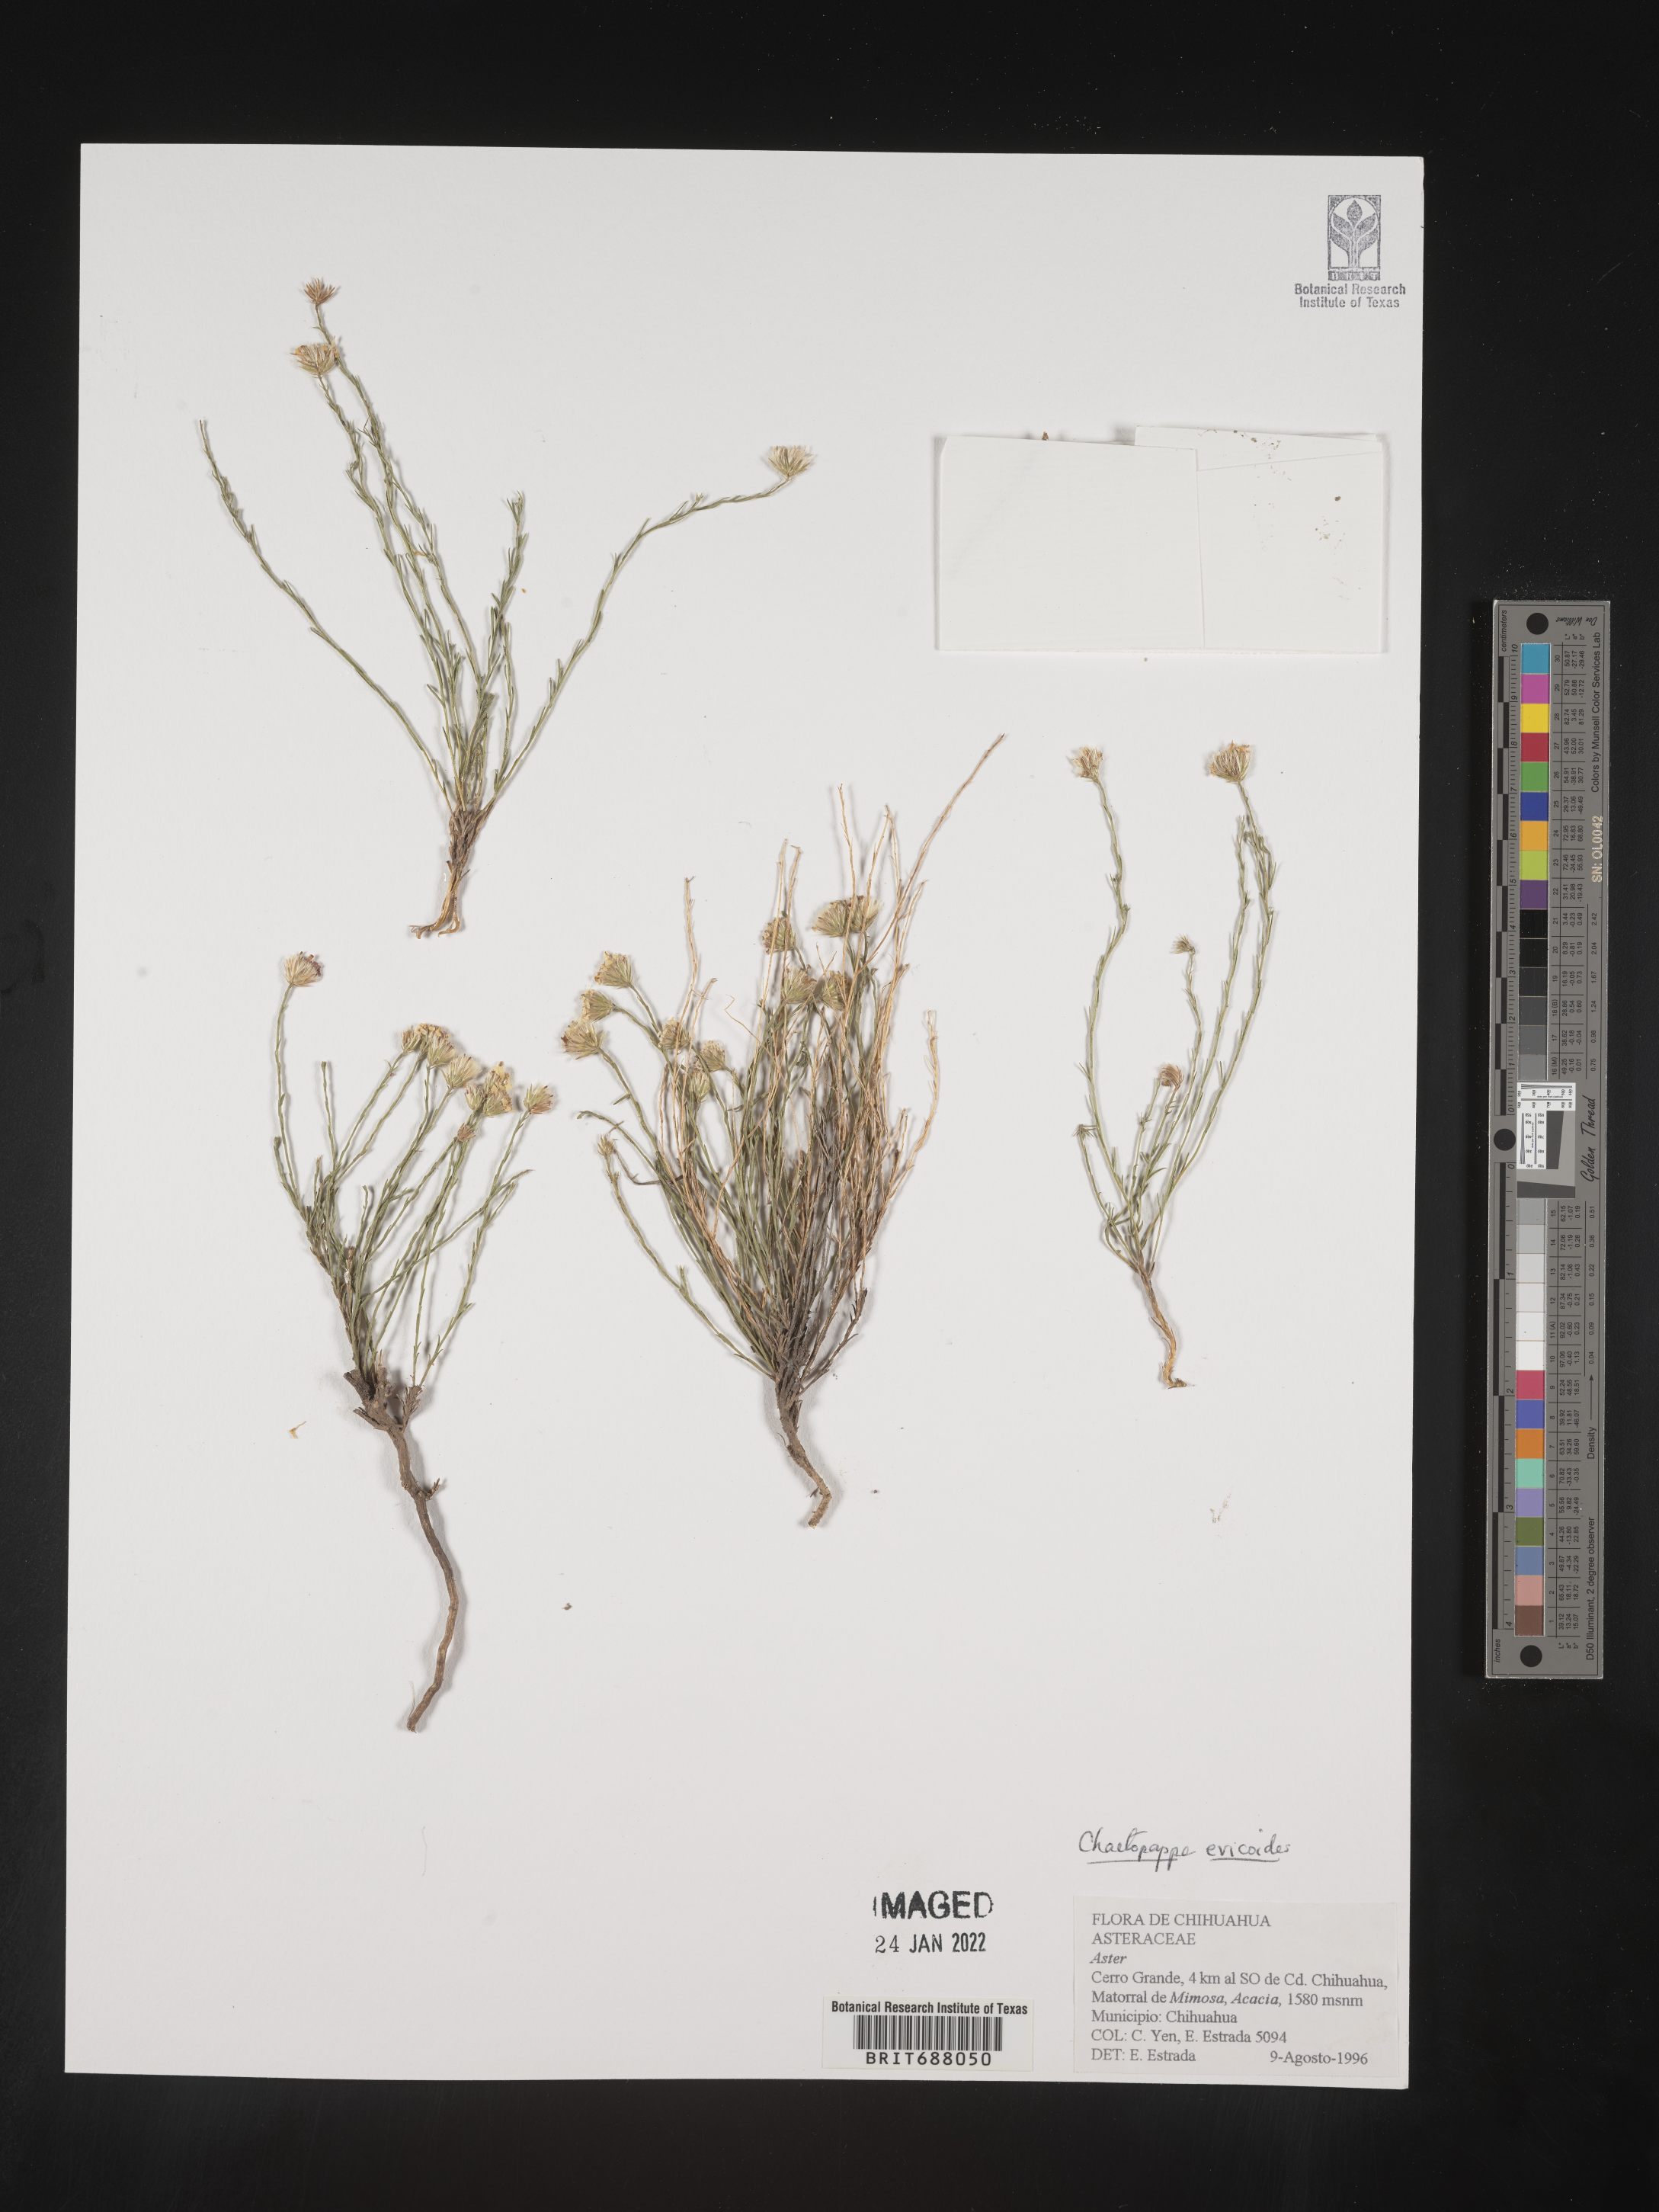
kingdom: Plantae
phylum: Tracheophyta
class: Magnoliopsida
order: Asterales
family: Asteraceae
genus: Chaetopappa
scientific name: Chaetopappa
